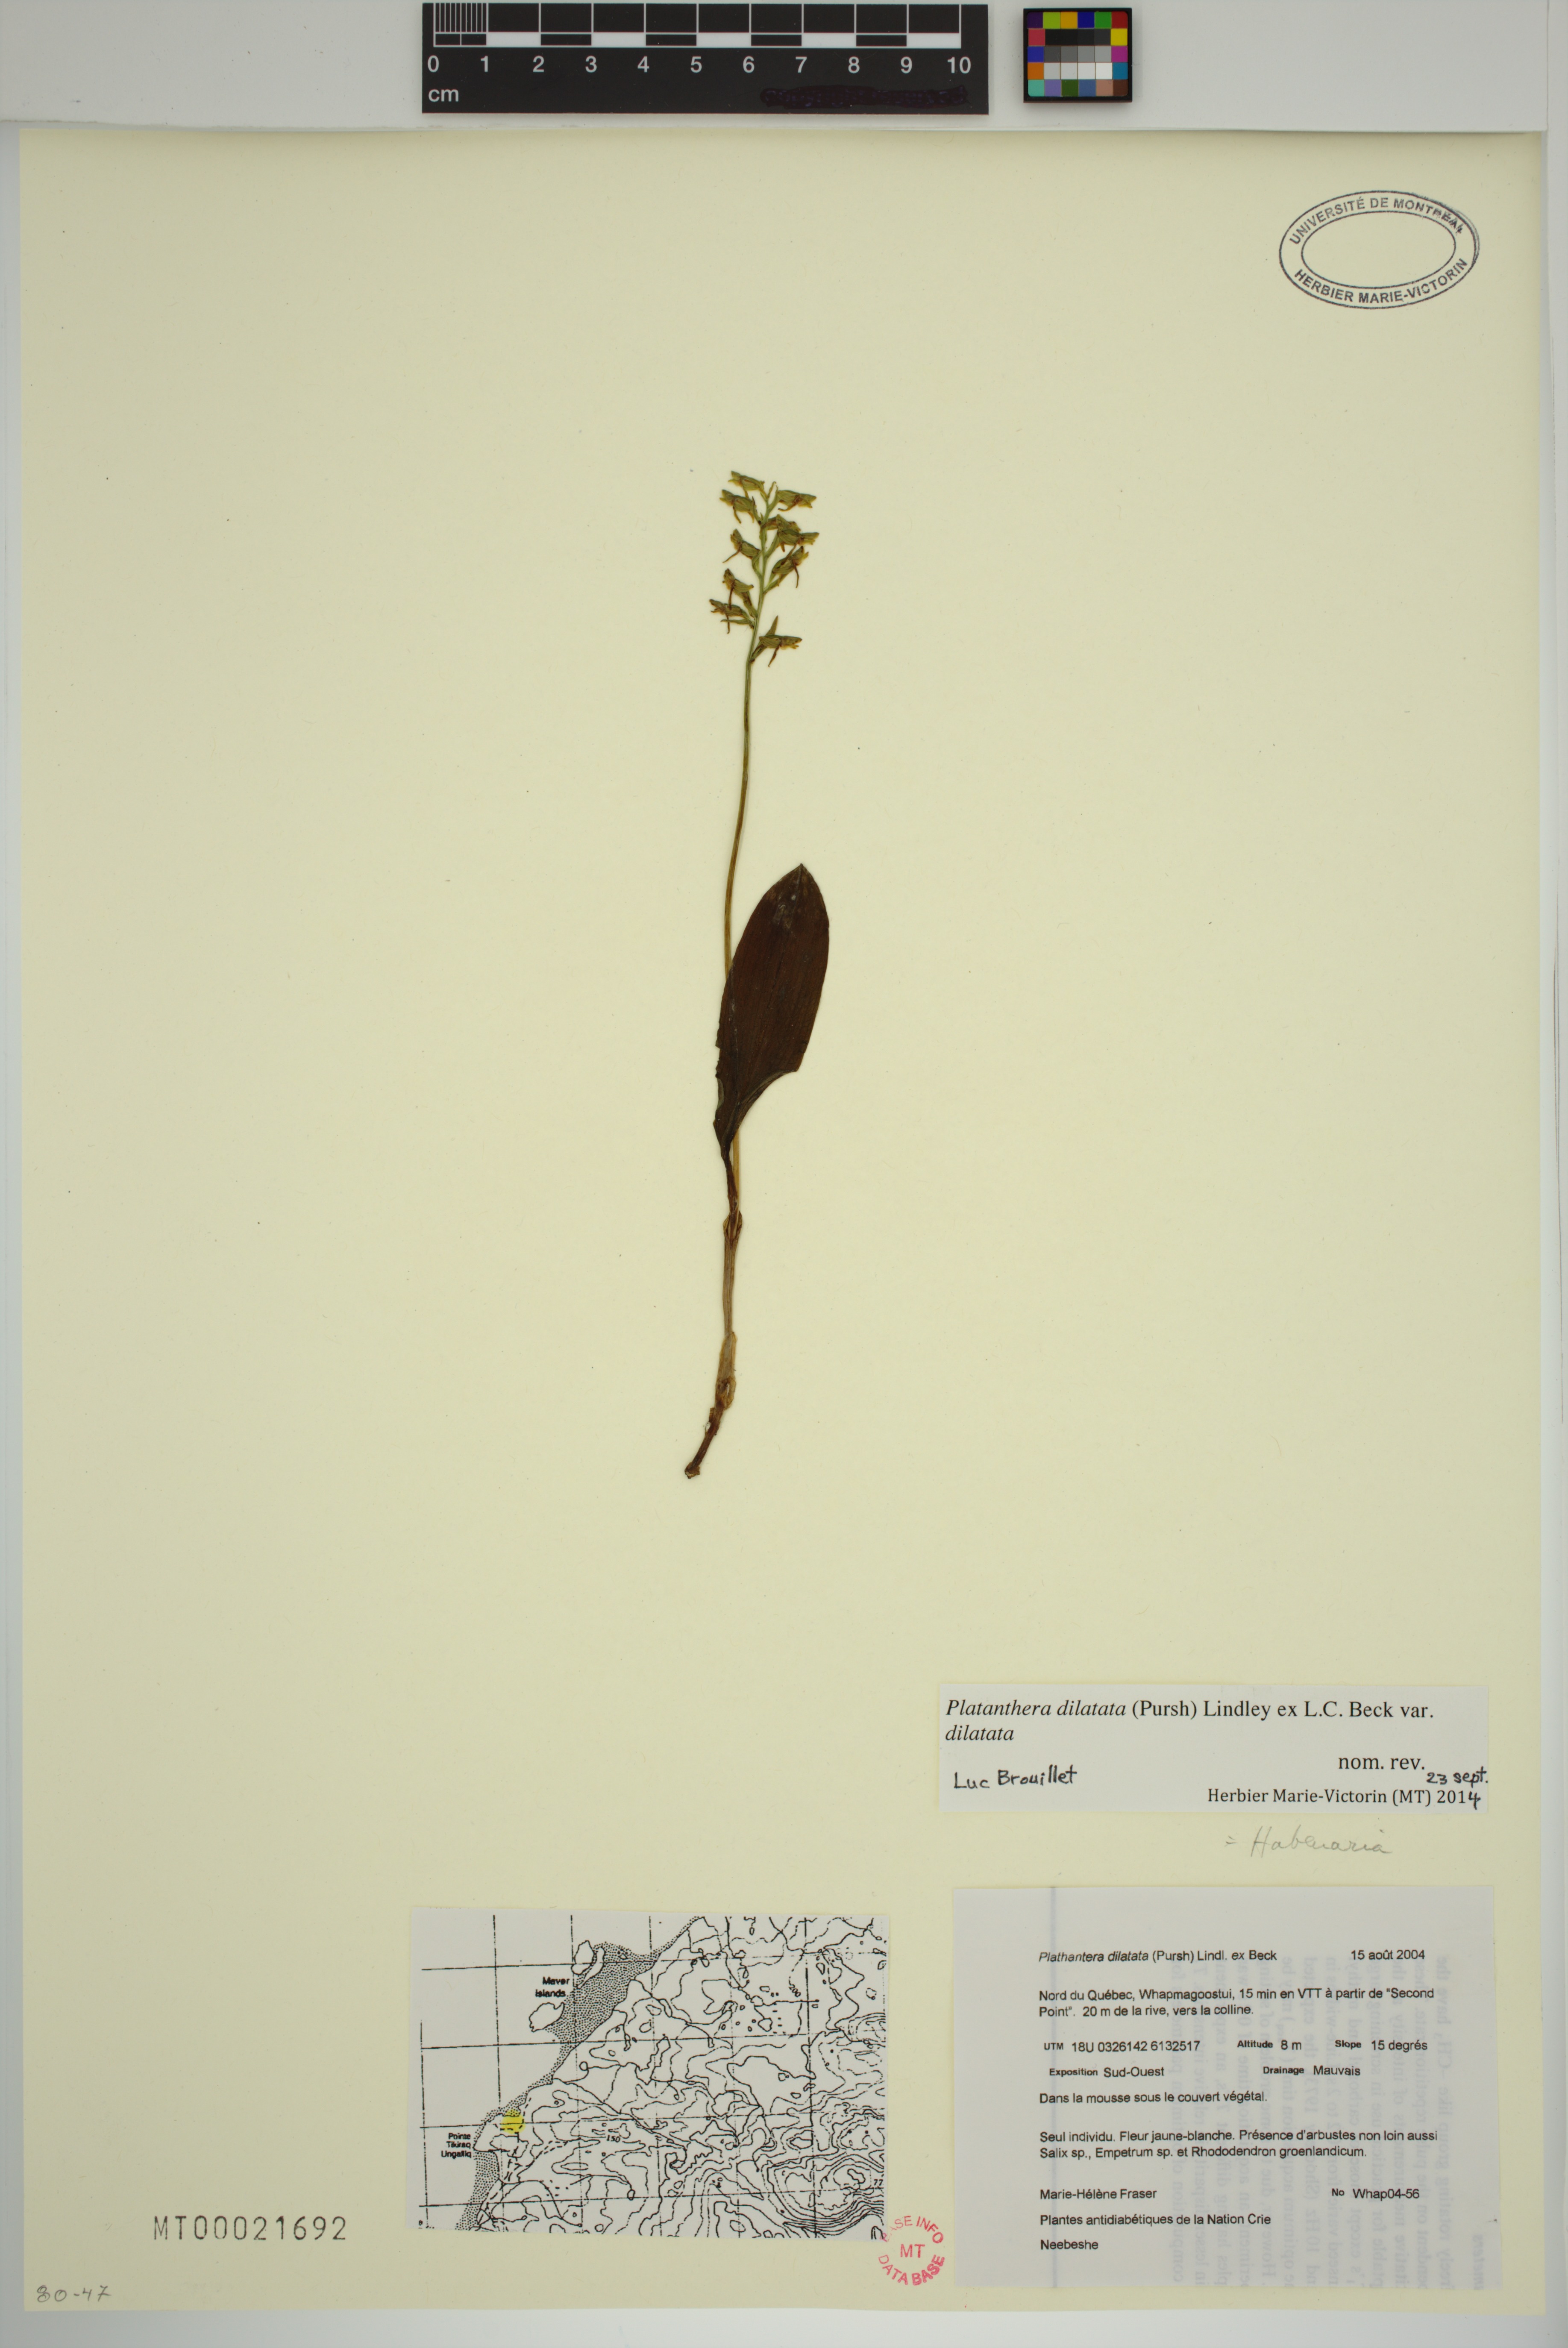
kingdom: Plantae
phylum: Tracheophyta
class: Liliopsida
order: Asparagales
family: Orchidaceae
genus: Platanthera
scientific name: Platanthera dilatata
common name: Bog candles
